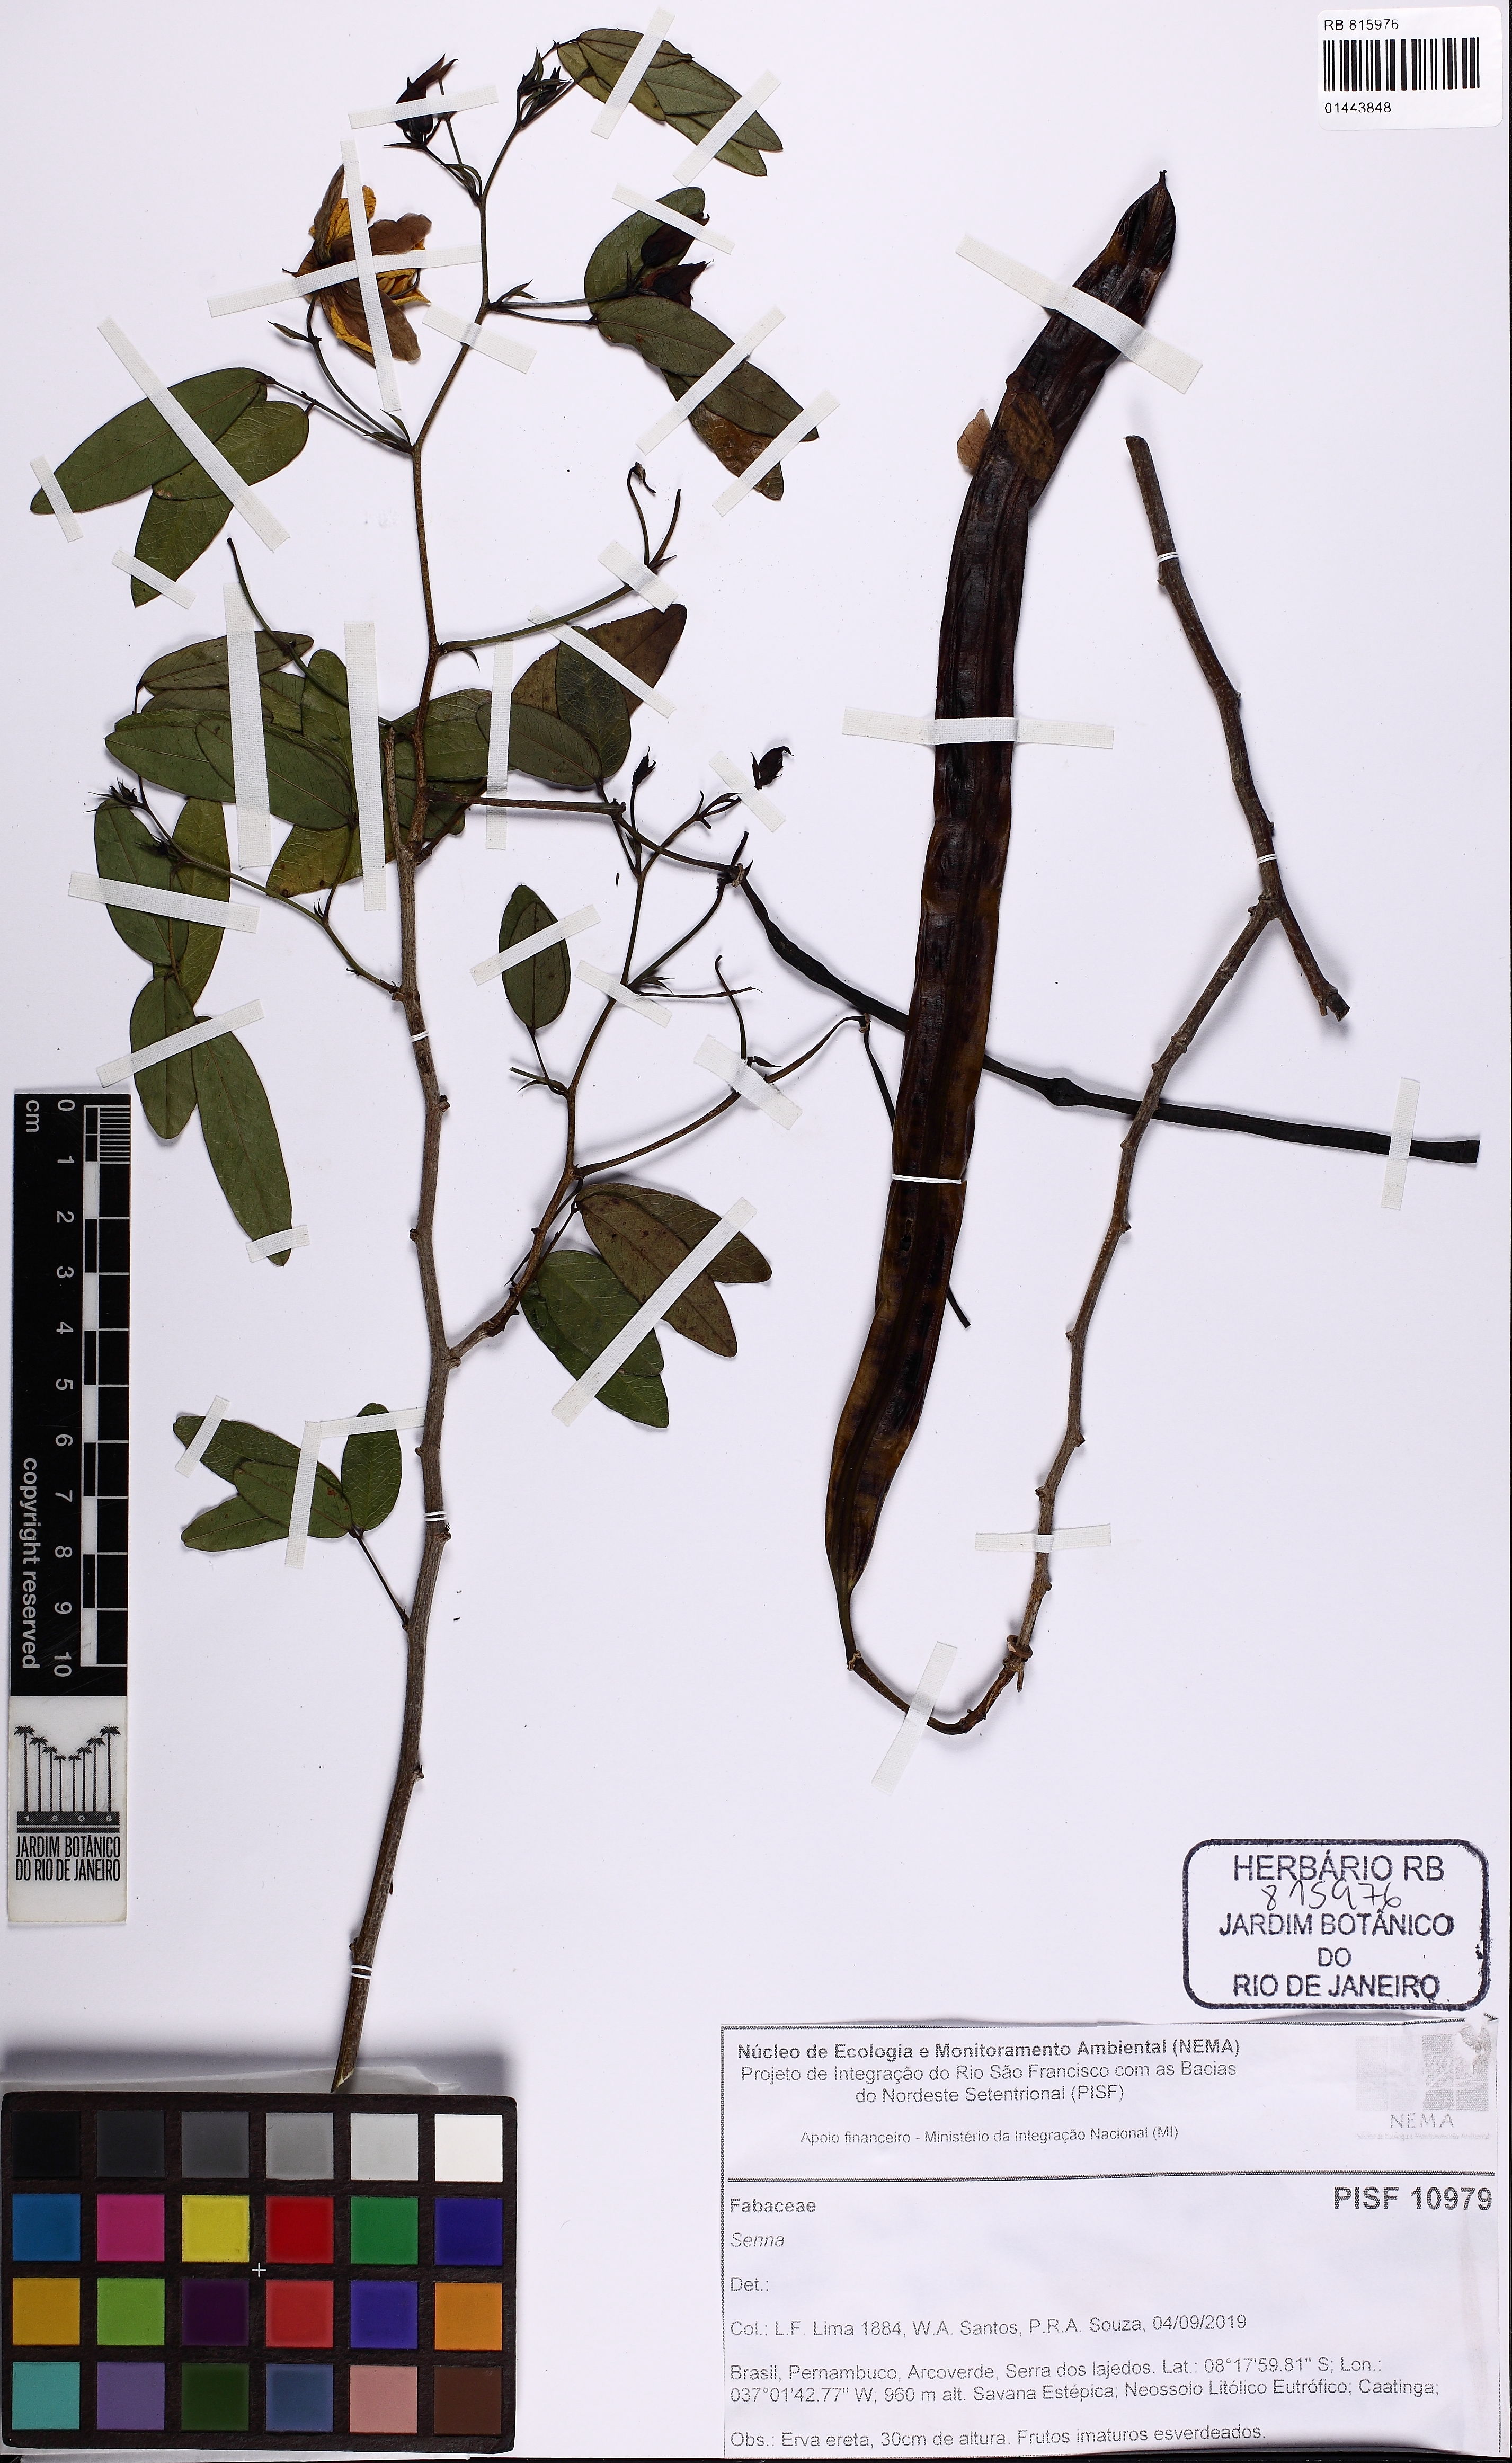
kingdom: Plantae
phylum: Tracheophyta
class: Magnoliopsida
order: Fabales
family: Fabaceae
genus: Senna
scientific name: Senna splendida
